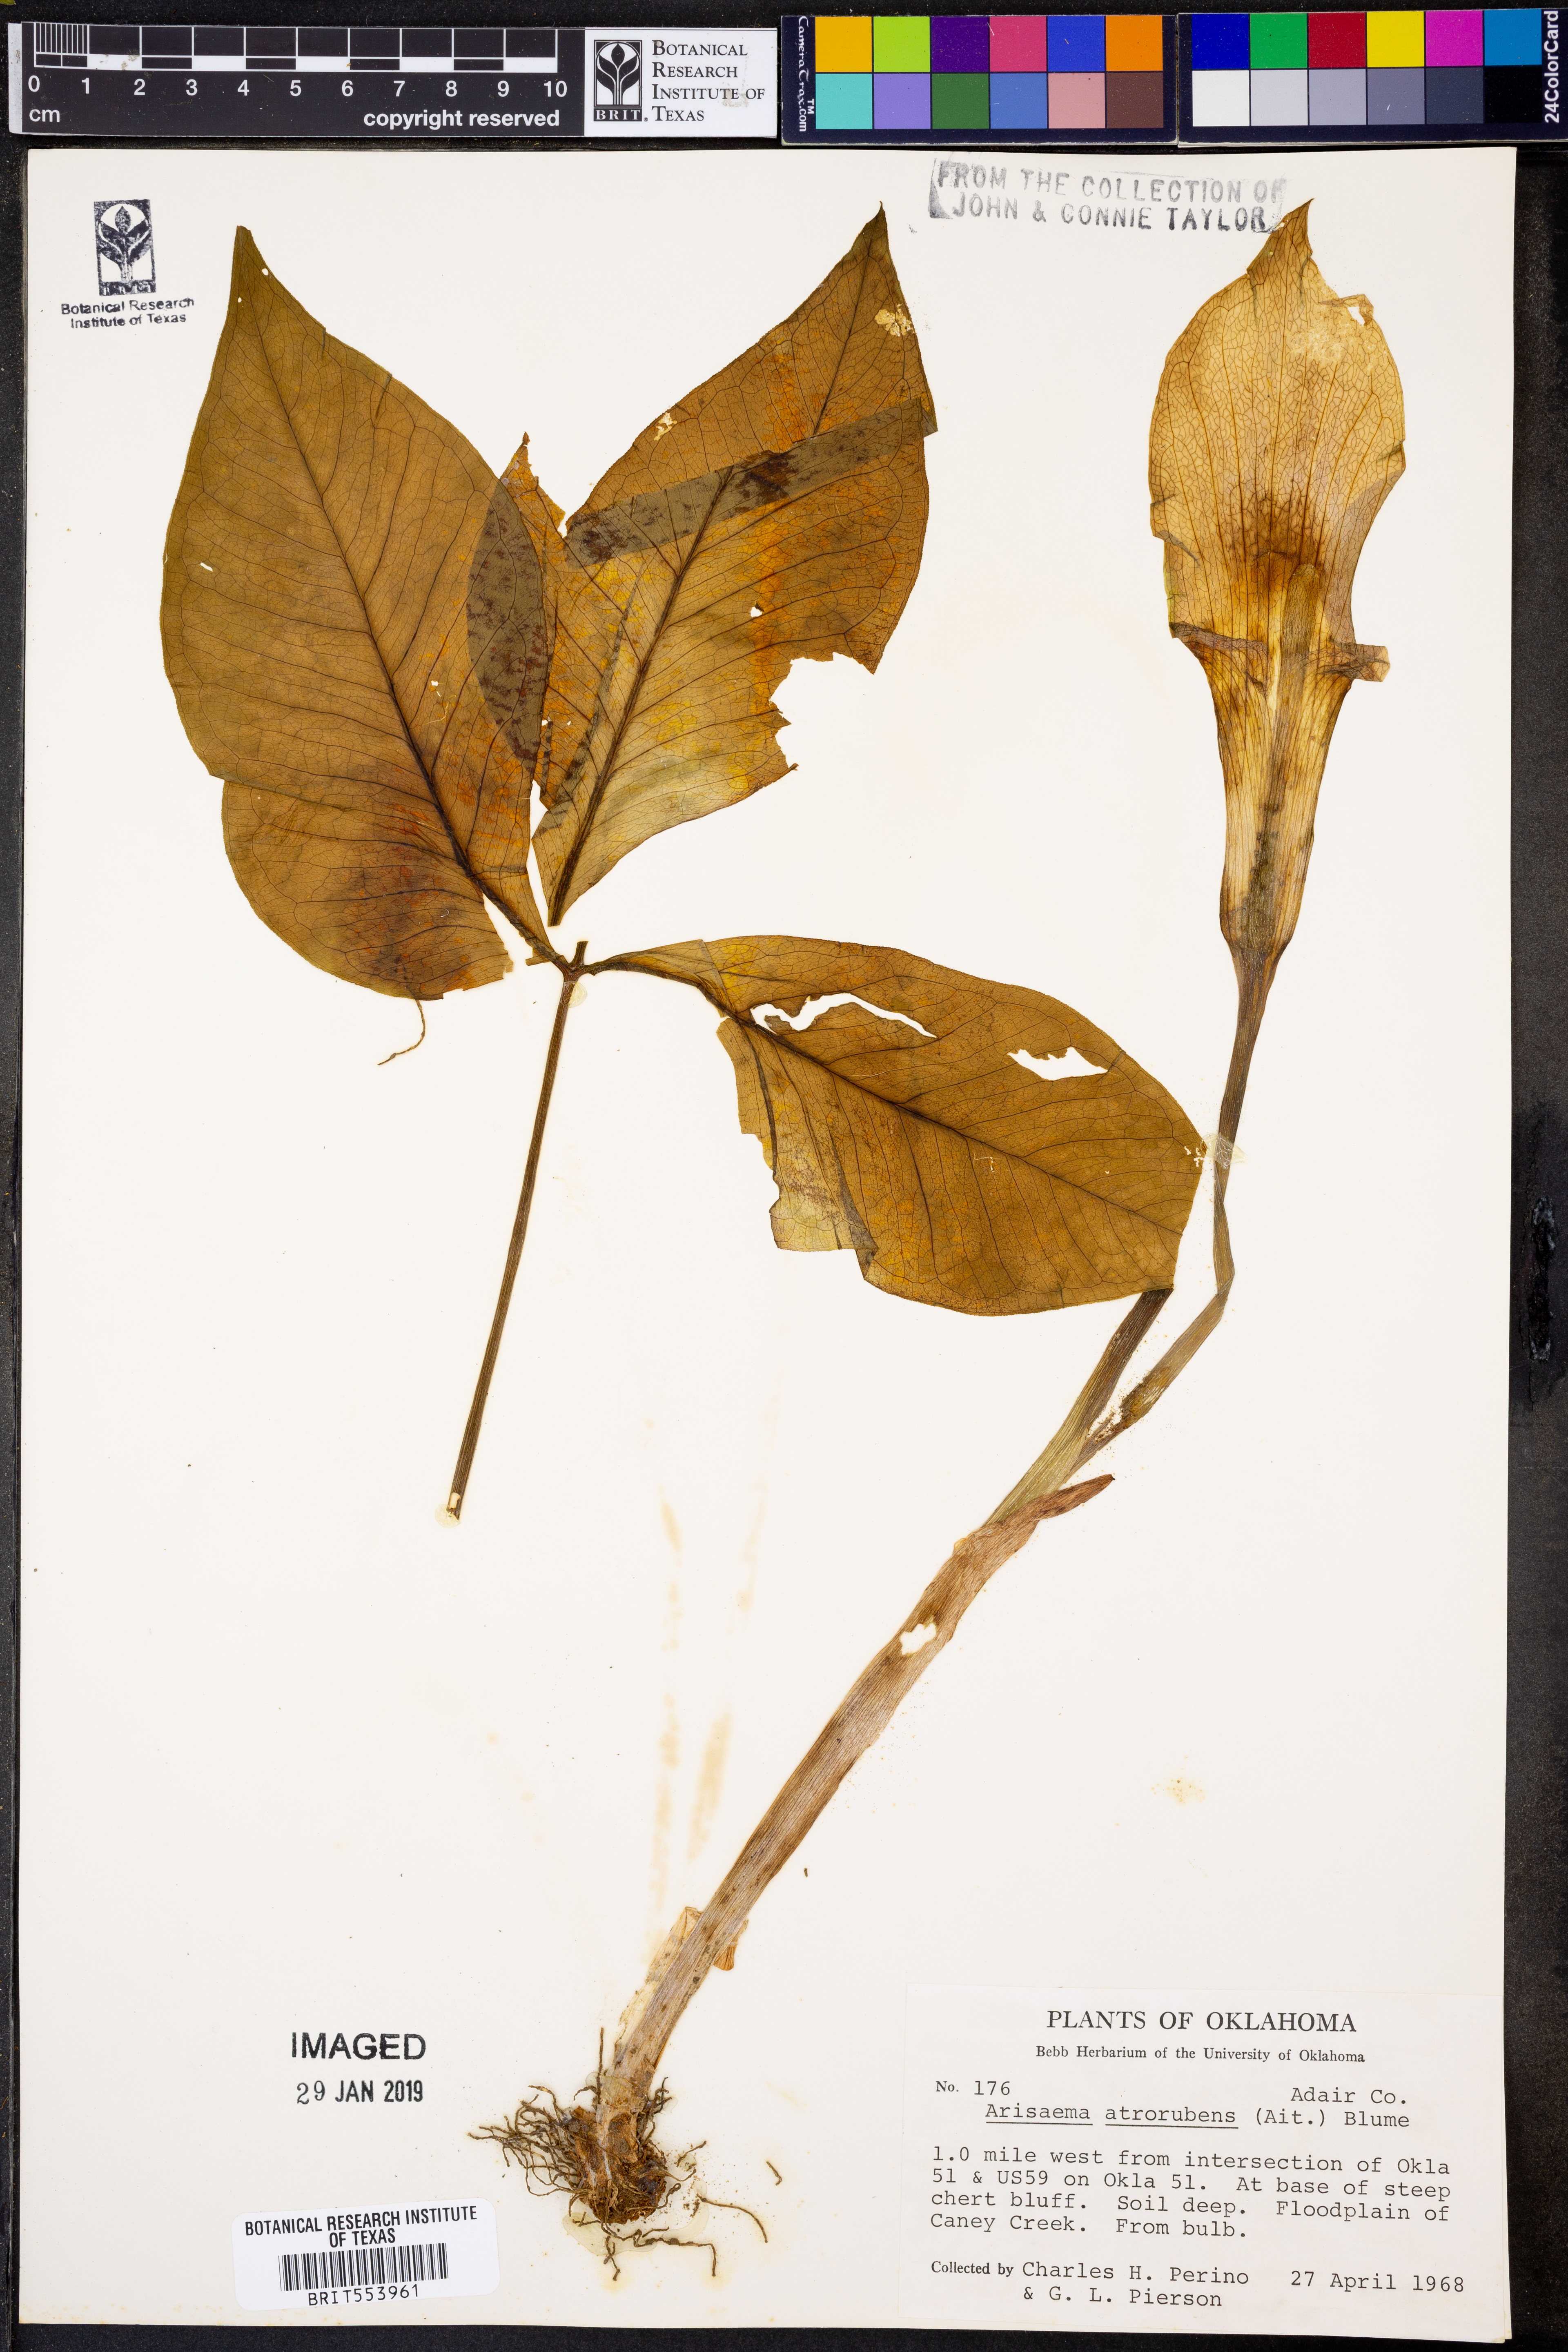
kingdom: Plantae
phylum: Tracheophyta
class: Liliopsida
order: Alismatales
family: Araceae
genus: Arisaema
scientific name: Arisaema triphyllum
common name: Jack-in-the-pulpit
